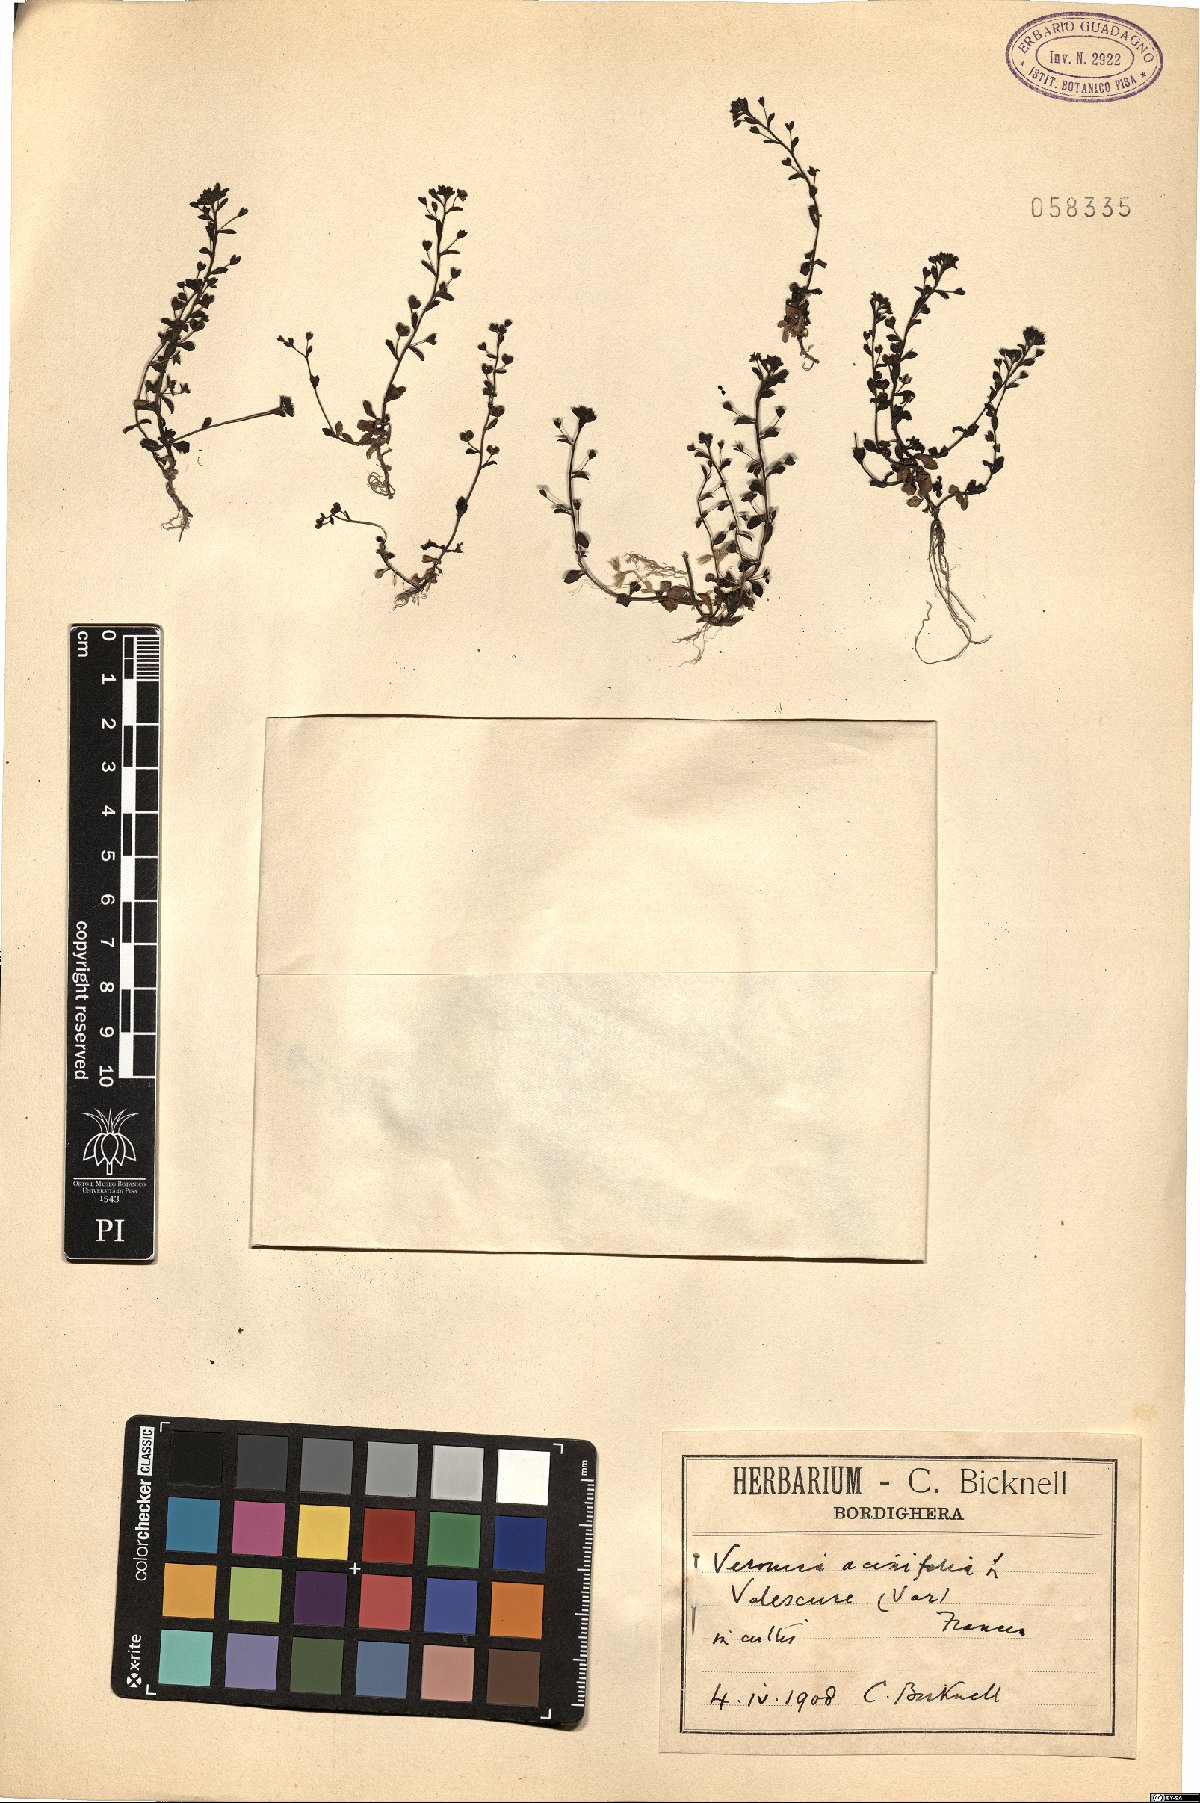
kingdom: Plantae
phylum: Tracheophyta
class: Magnoliopsida
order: Lamiales
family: Plantaginaceae
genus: Veronica
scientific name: Veronica acinifolia
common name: French speedwell
